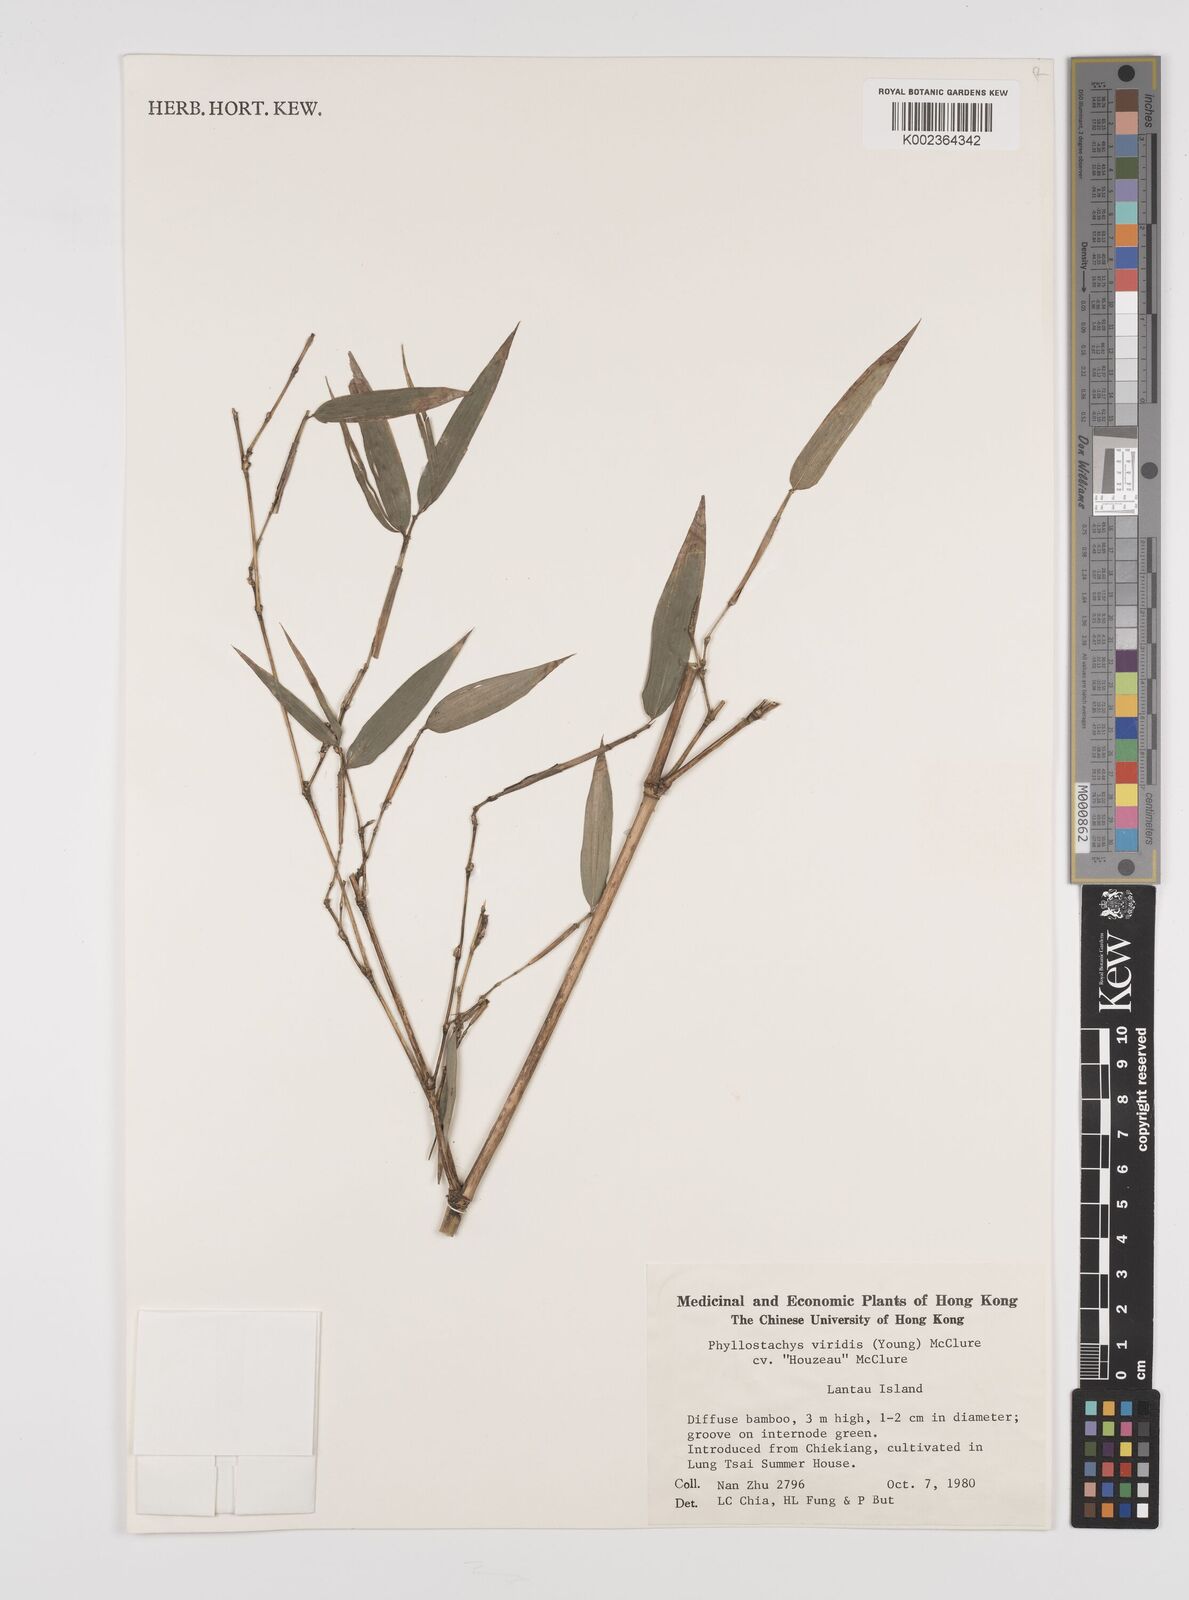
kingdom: Plantae
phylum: Tracheophyta
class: Liliopsida
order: Poales
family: Poaceae
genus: Phyllostachys
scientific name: Phyllostachys sulphurea
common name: Sulphur bamboo
